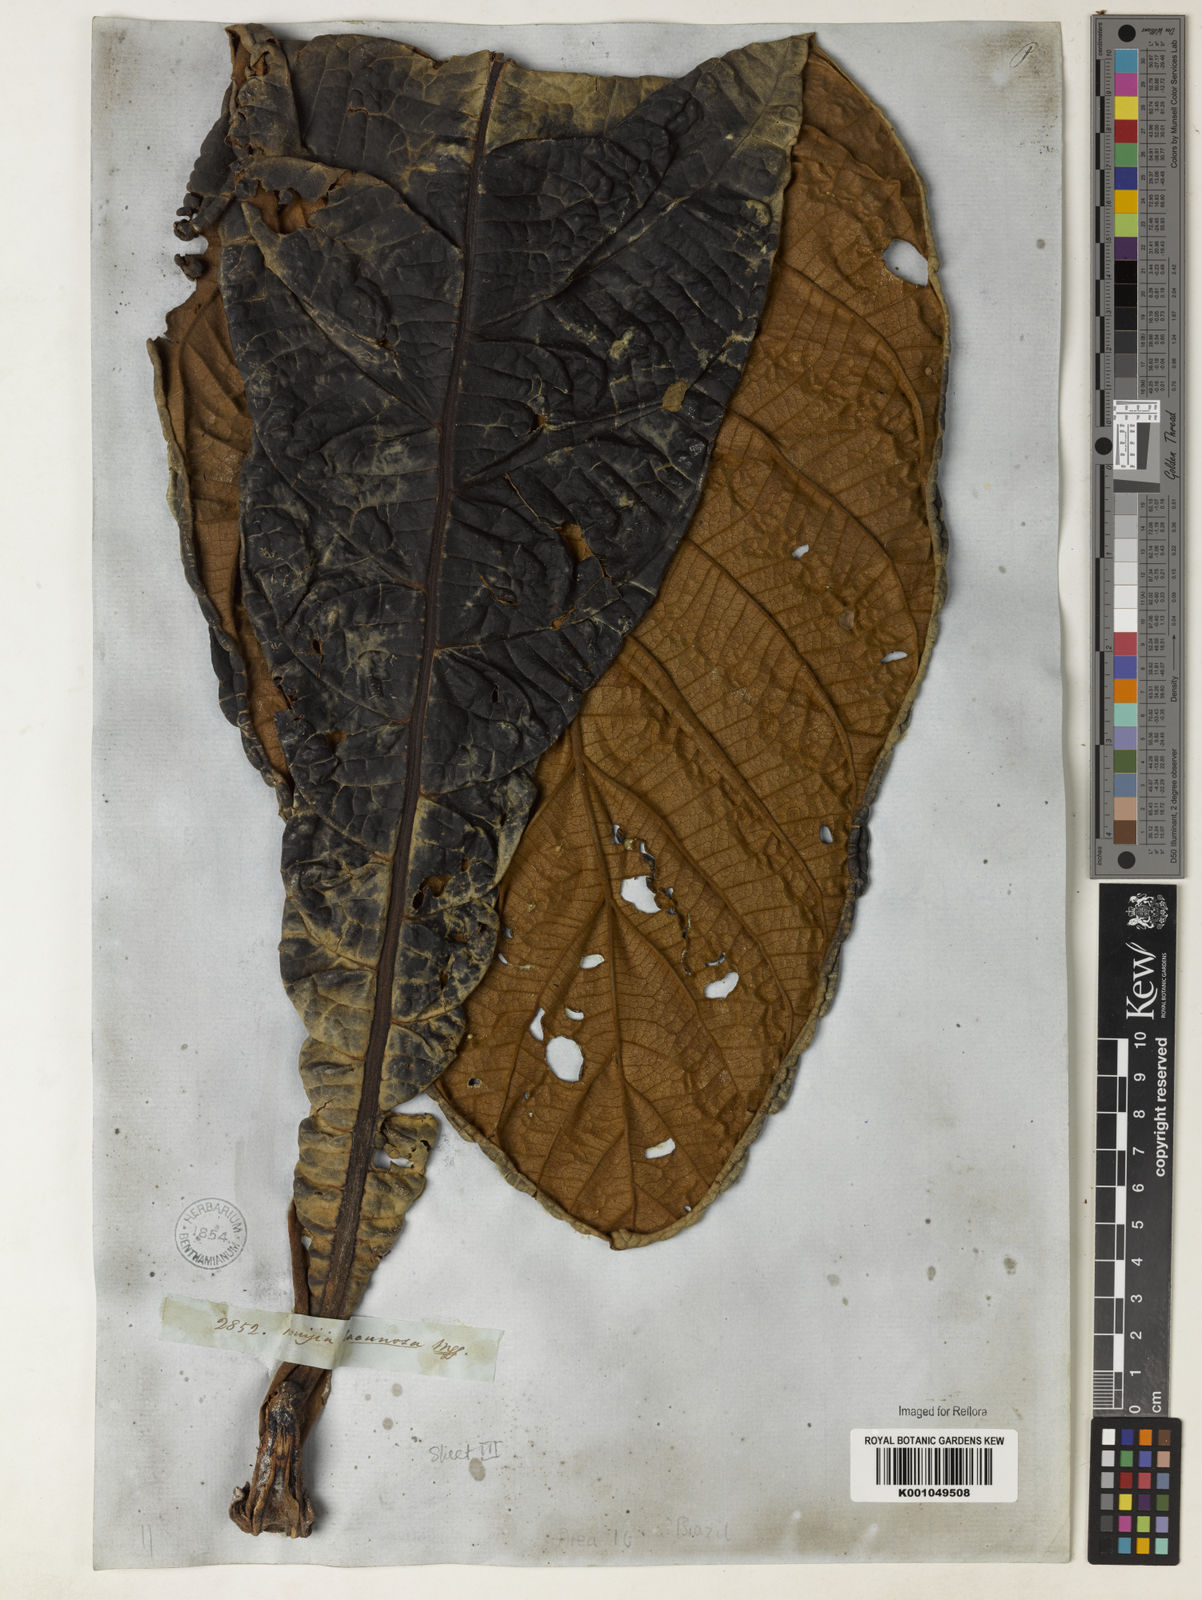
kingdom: Plantae
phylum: Tracheophyta
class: Magnoliopsida
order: Gentianales
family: Rubiaceae
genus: Remijia
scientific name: Remijia lacunosa
